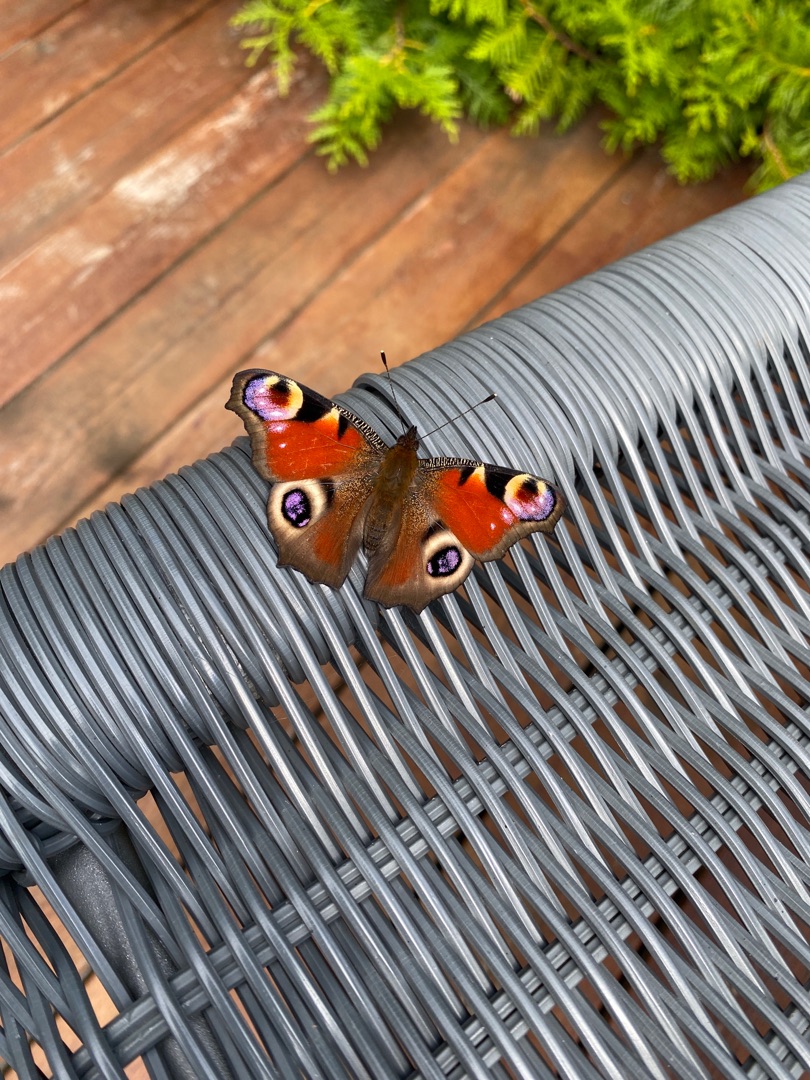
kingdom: Animalia
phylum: Arthropoda
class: Insecta
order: Lepidoptera
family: Nymphalidae
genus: Aglais
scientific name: Aglais io
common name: Dagpåfugleøje
